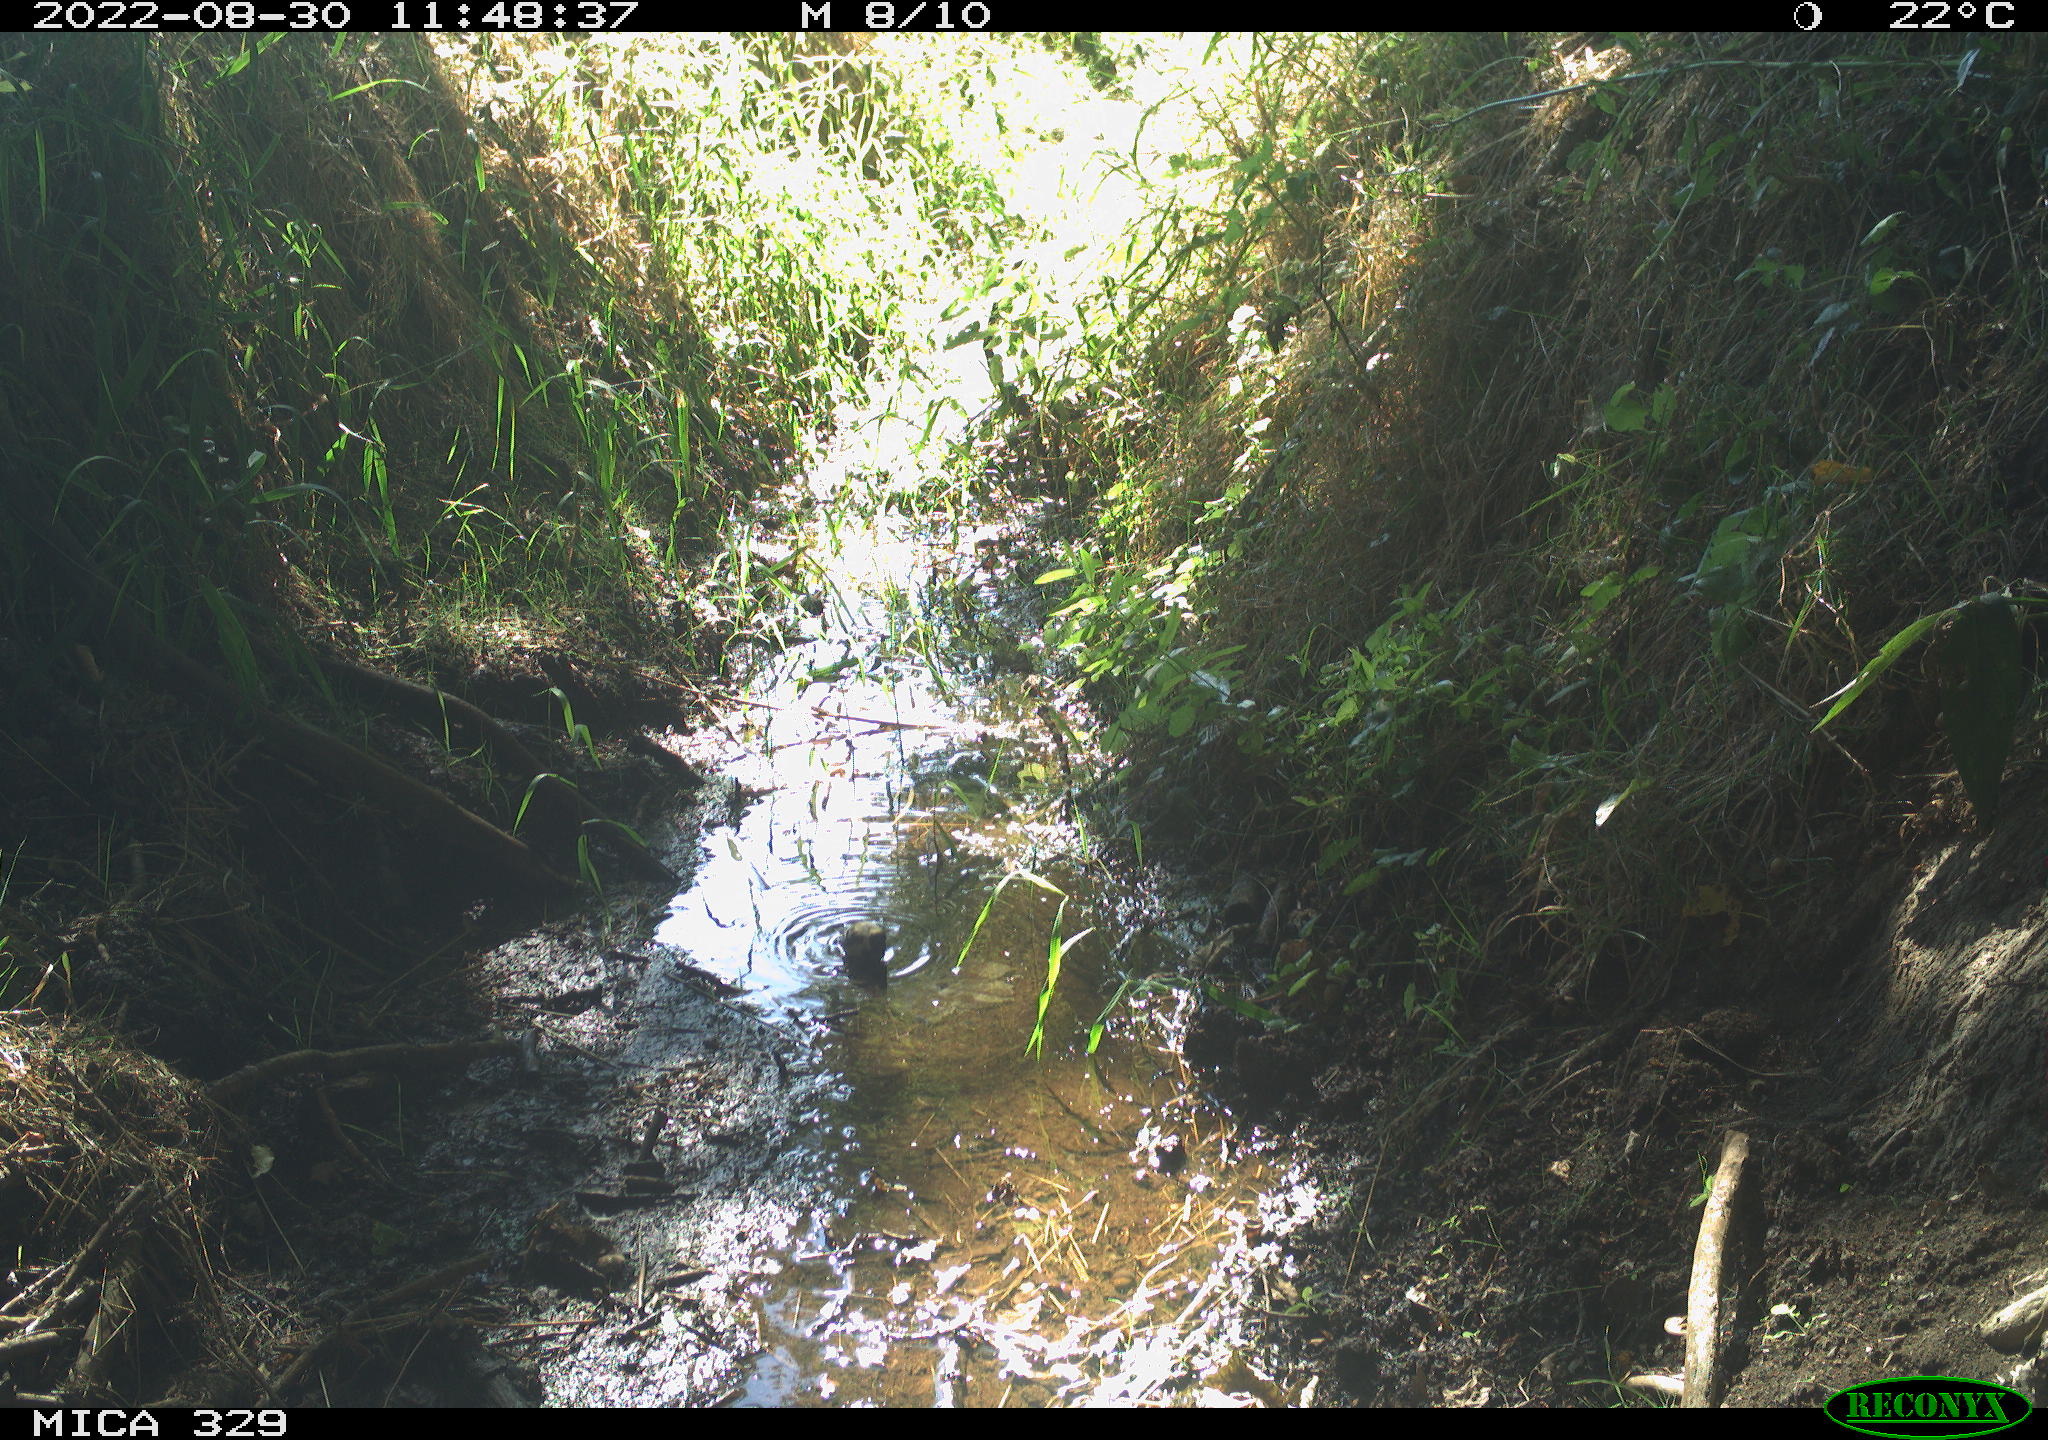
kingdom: Animalia
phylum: Chordata
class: Aves
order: Passeriformes
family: Paridae
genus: Parus
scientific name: Parus major
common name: Great tit
